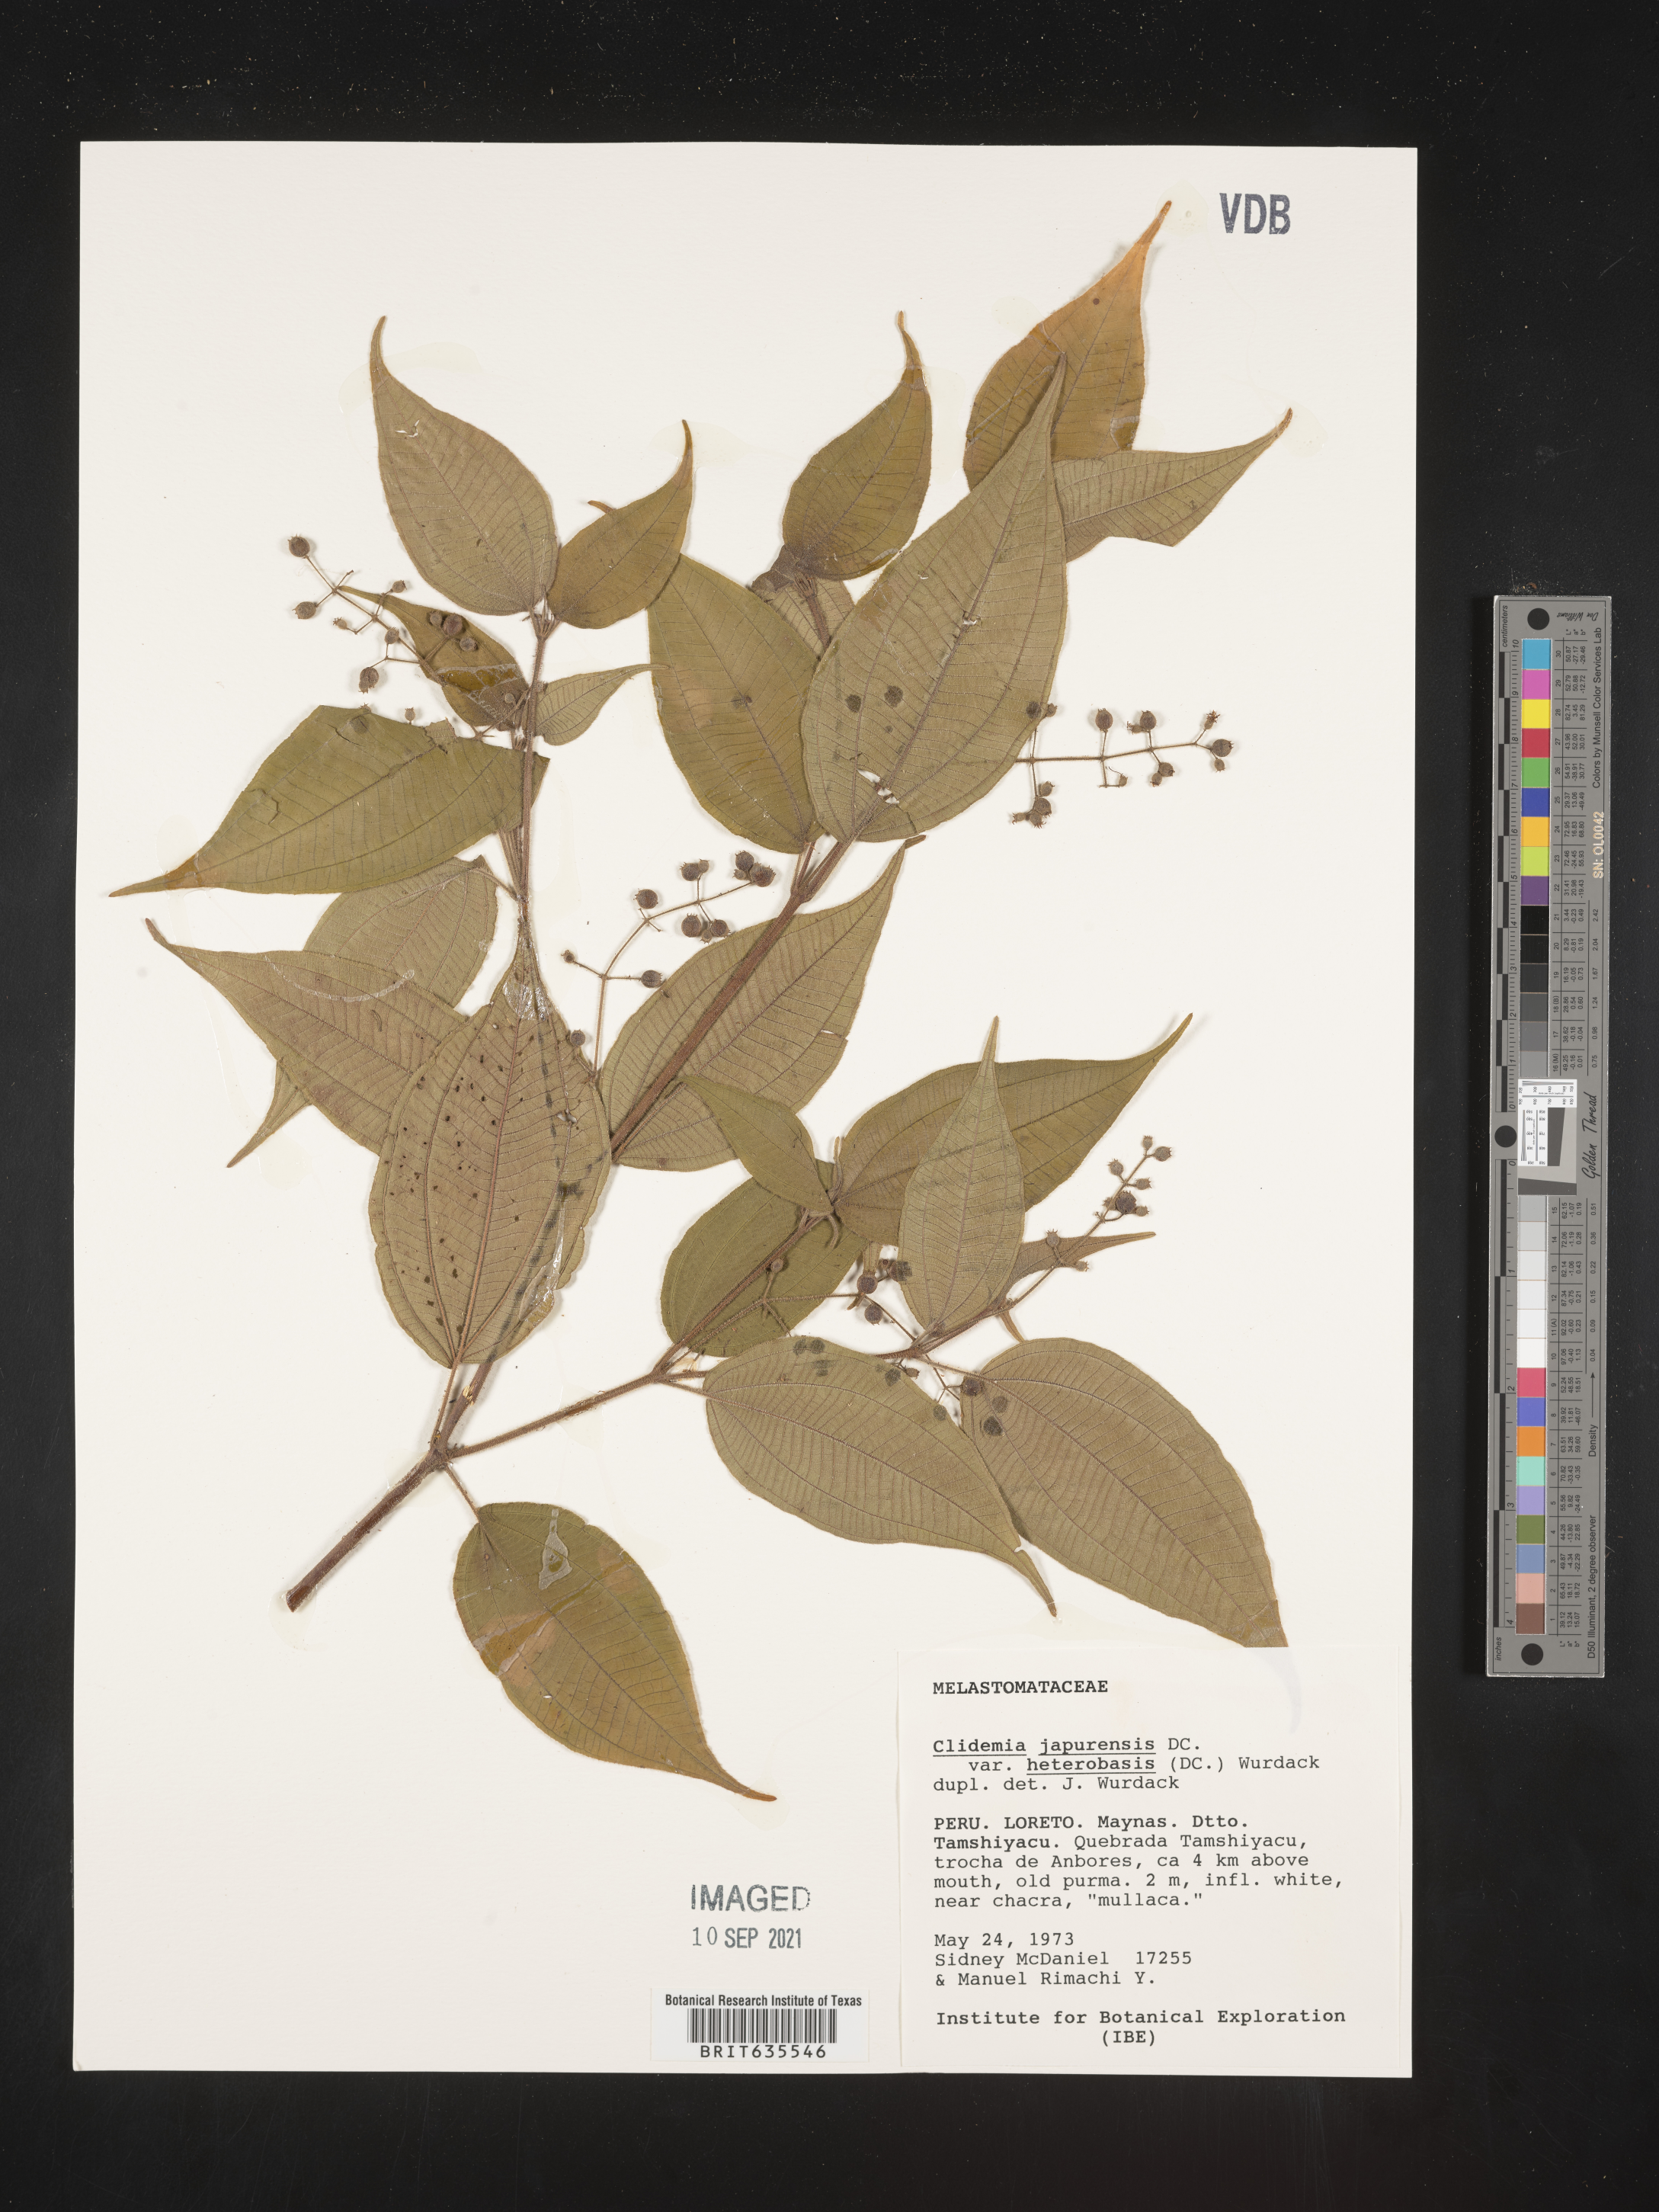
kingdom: Plantae
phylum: Tracheophyta
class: Magnoliopsida
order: Myrtales
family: Melastomataceae
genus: Miconia
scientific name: Miconia
